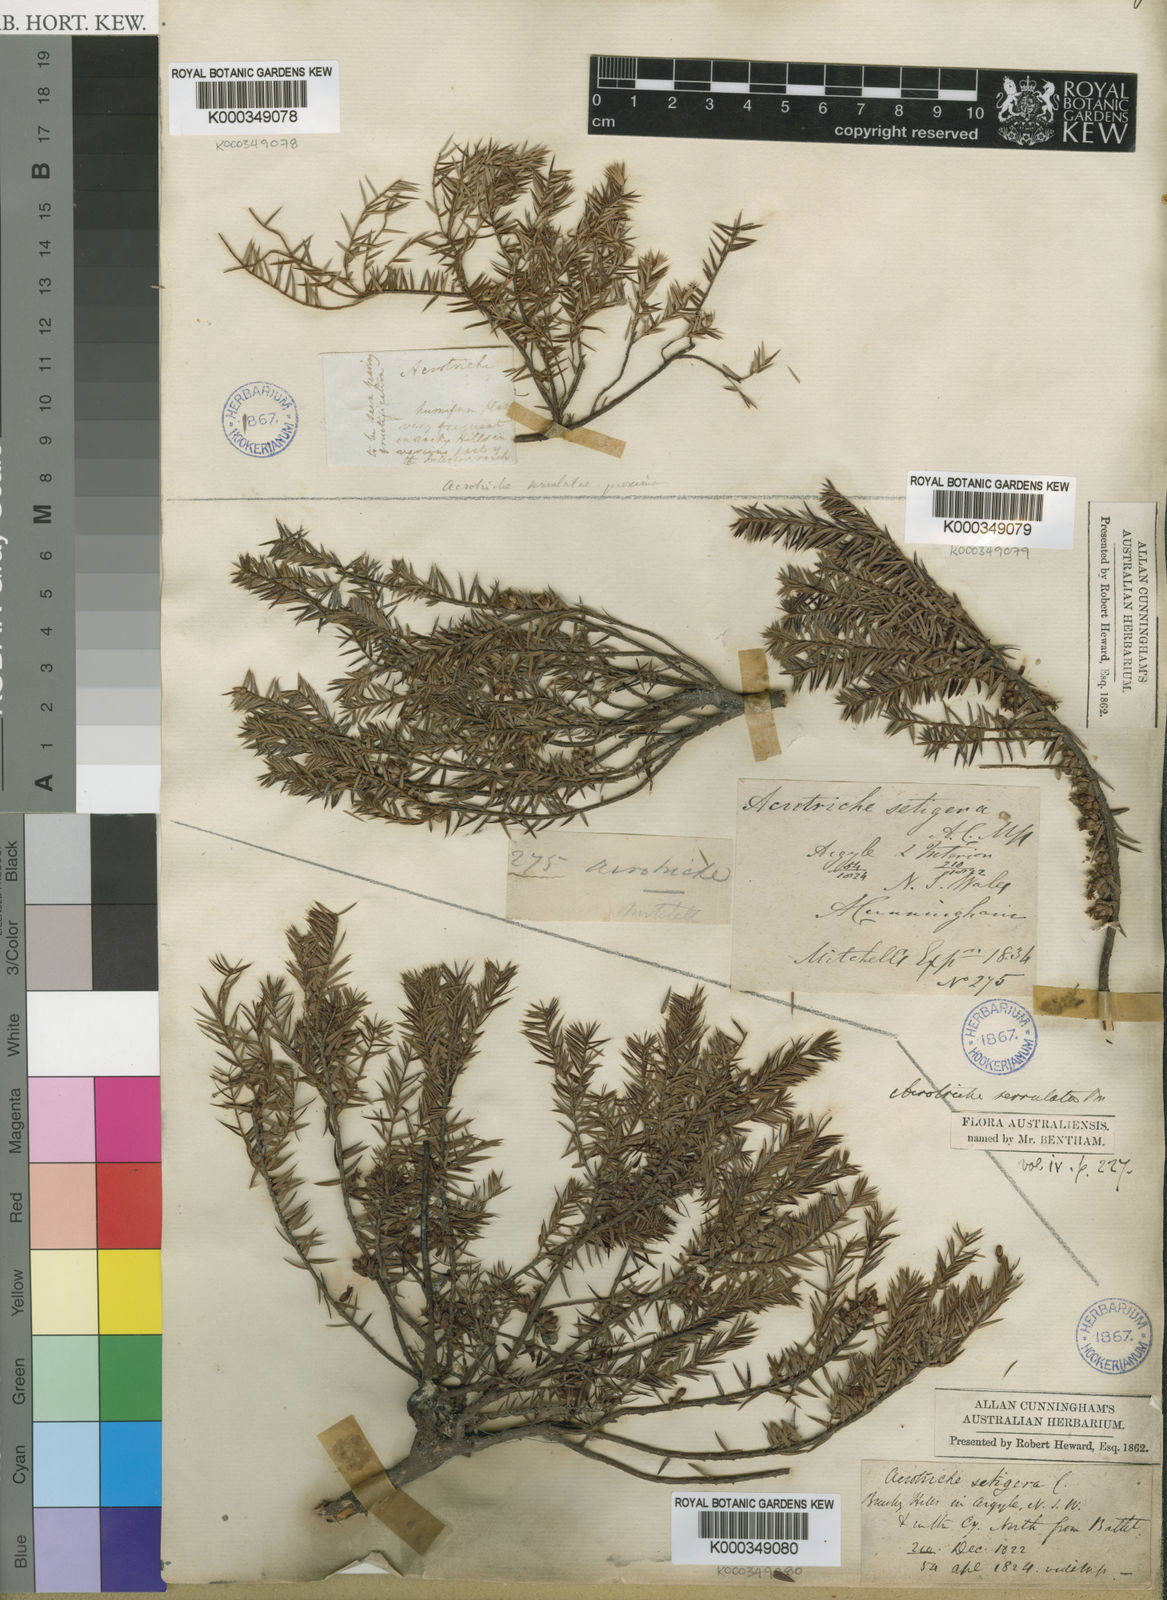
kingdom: Plantae
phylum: Tracheophyta
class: Magnoliopsida
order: Ericales
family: Ericaceae
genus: Acrotriche
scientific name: Acrotriche serrulata
